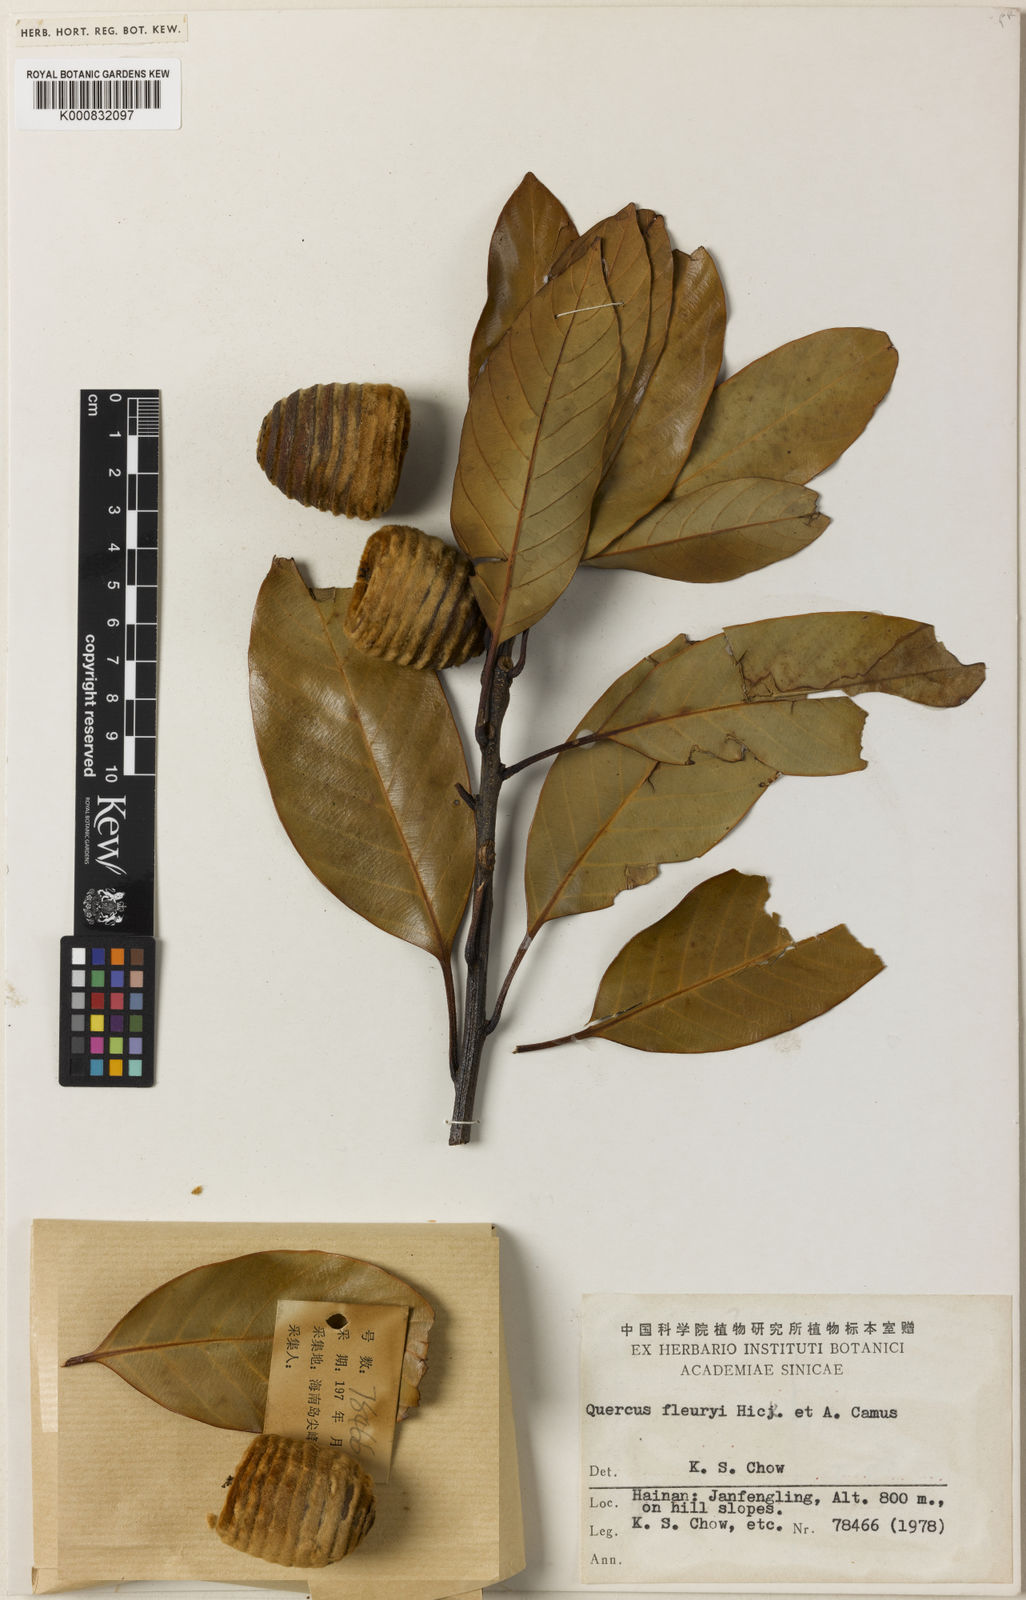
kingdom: Plantae
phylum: Tracheophyta
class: Magnoliopsida
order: Fagales
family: Fagaceae
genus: Quercus
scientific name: Quercus macrocalyx
